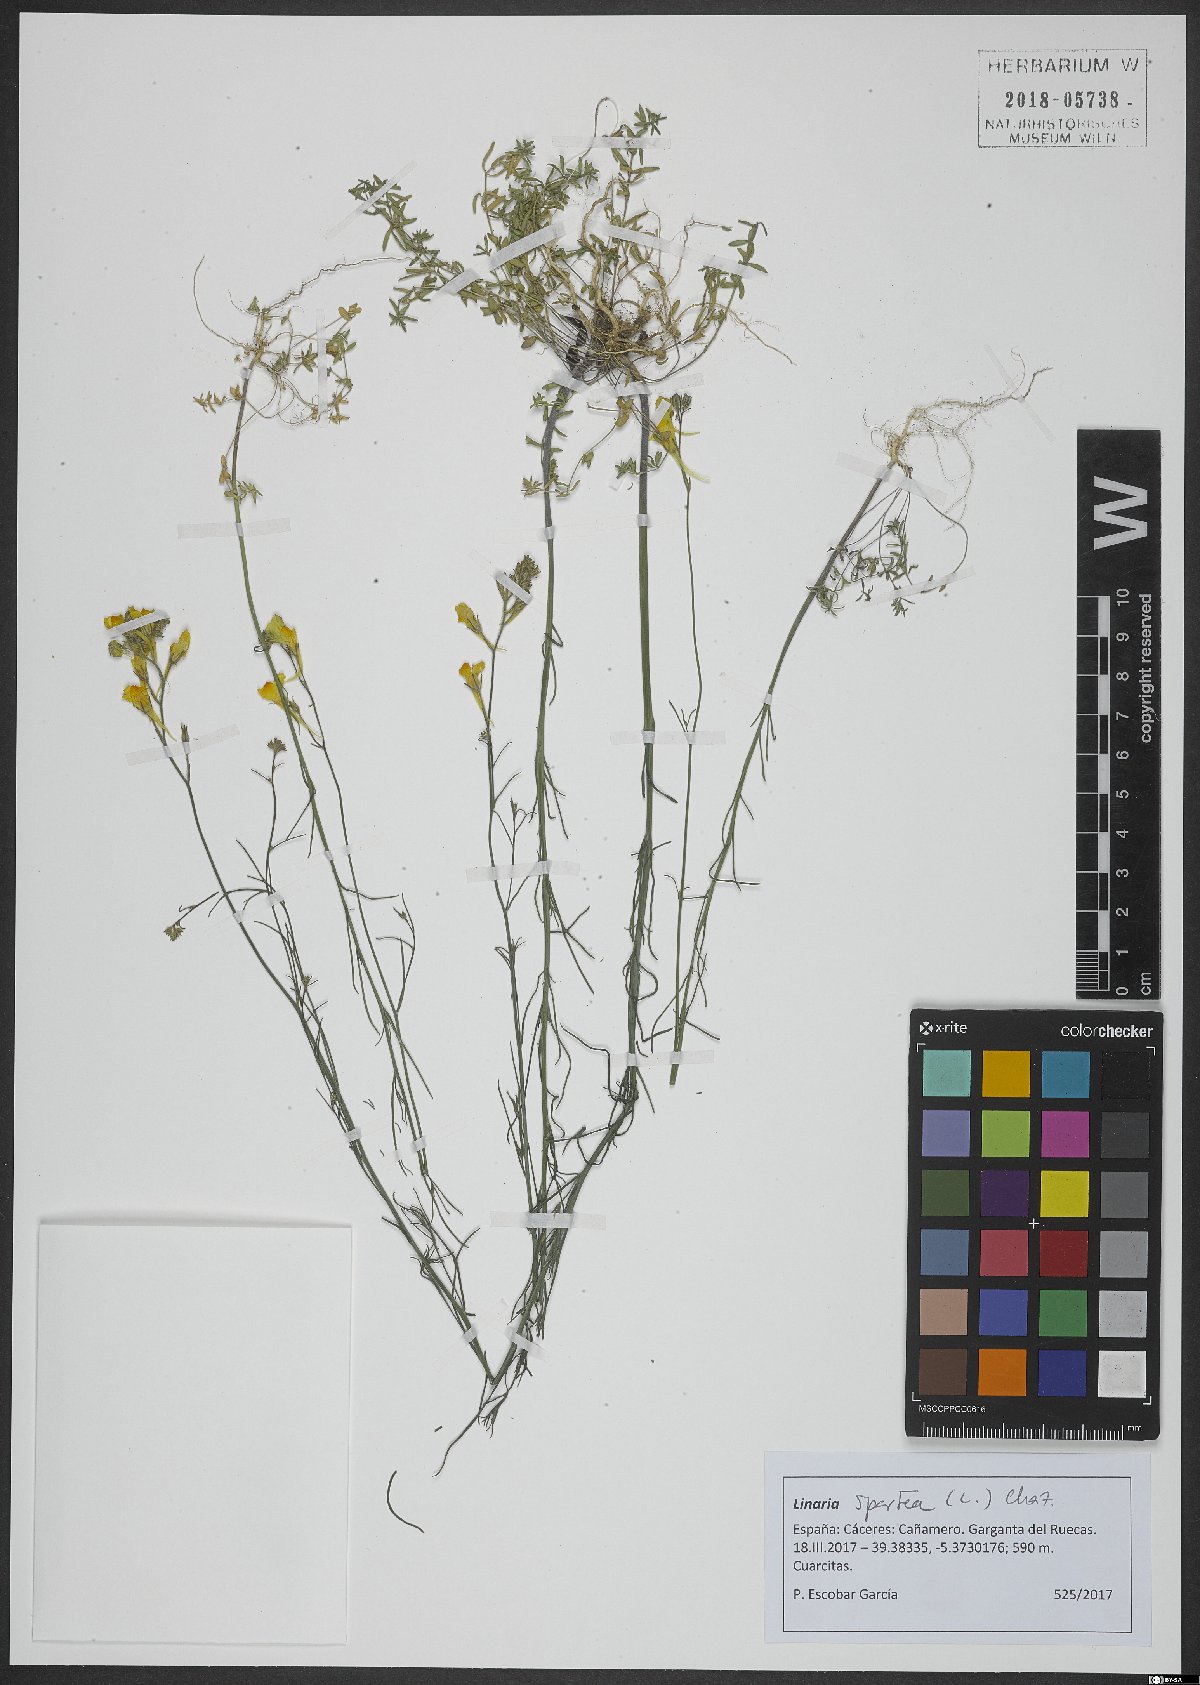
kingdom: Plantae
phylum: Tracheophyta
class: Magnoliopsida
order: Lamiales
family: Plantaginaceae
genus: Linaria
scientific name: Linaria spartea
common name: Ballast toadflax
